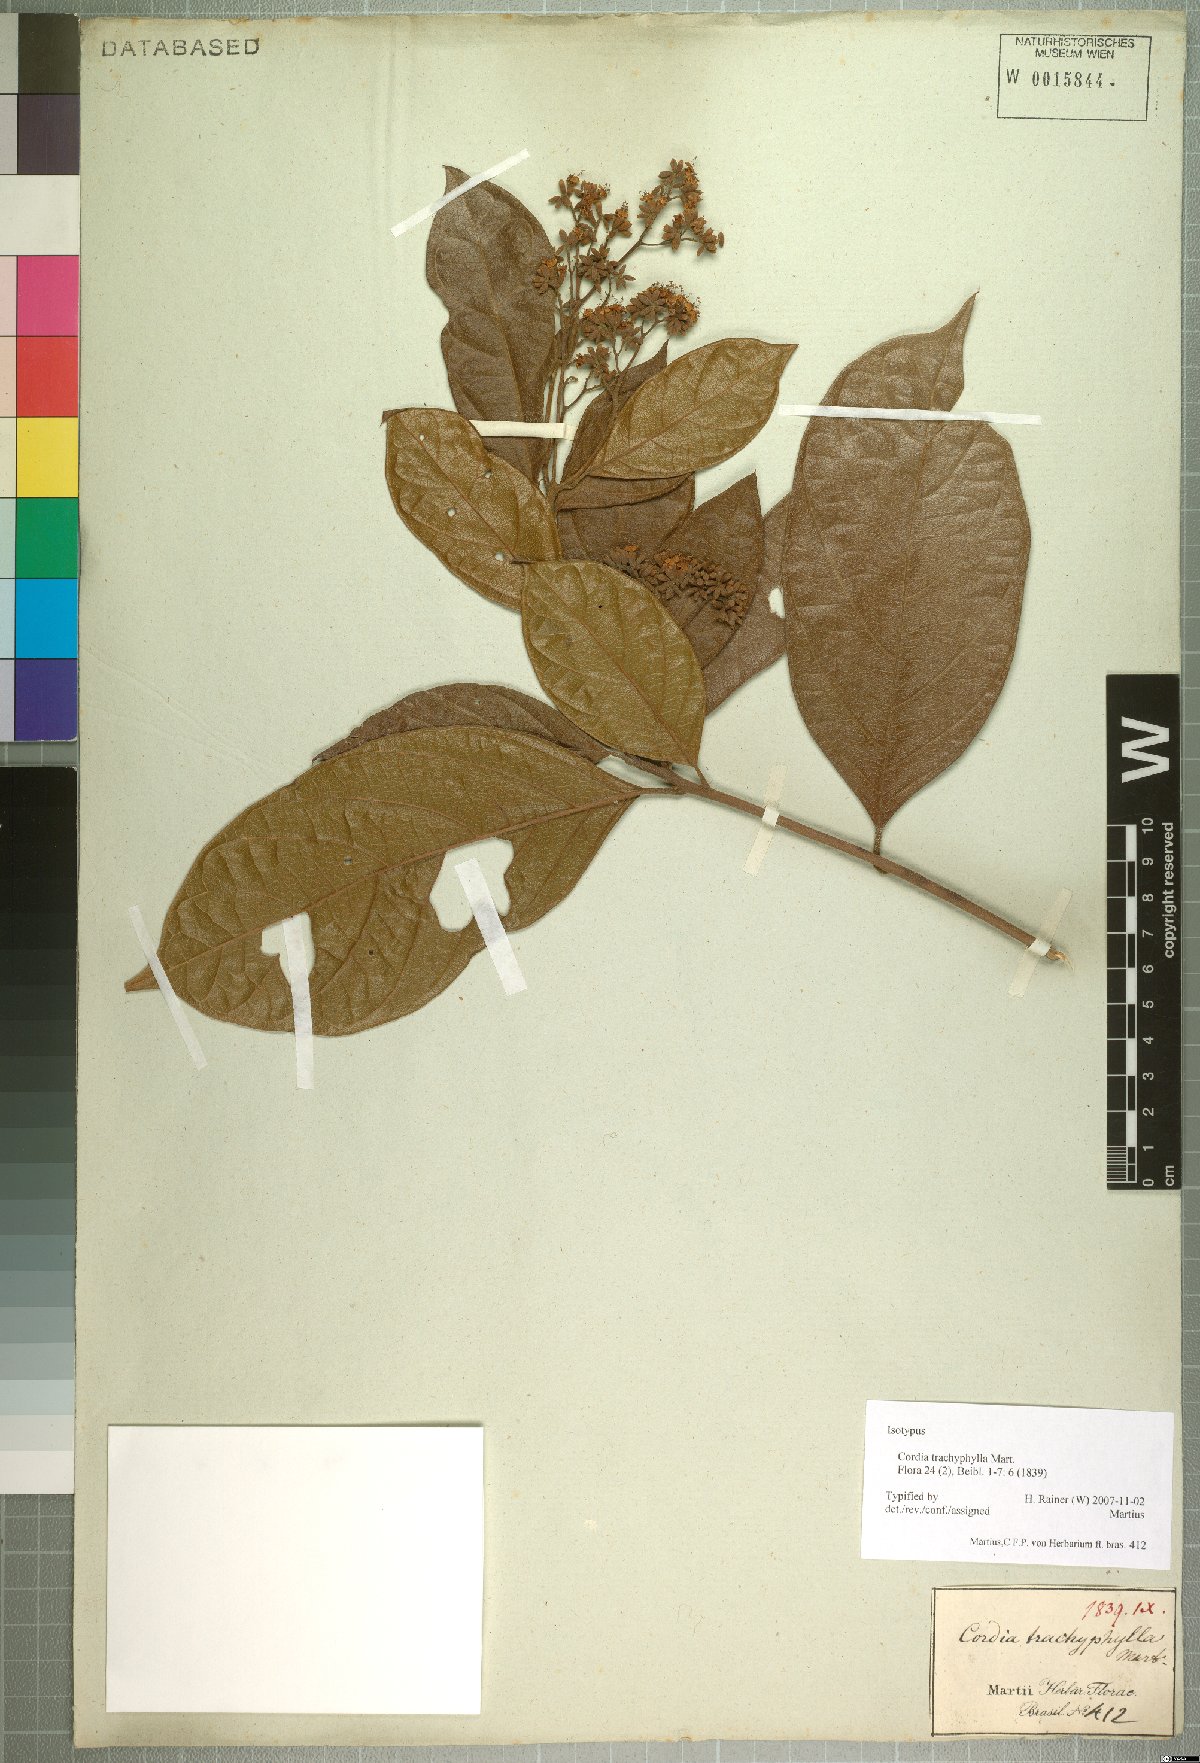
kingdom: Plantae
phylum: Tracheophyta
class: Magnoliopsida
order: Boraginales
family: Cordiaceae
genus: Cordia
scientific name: Cordia trachyphylla
